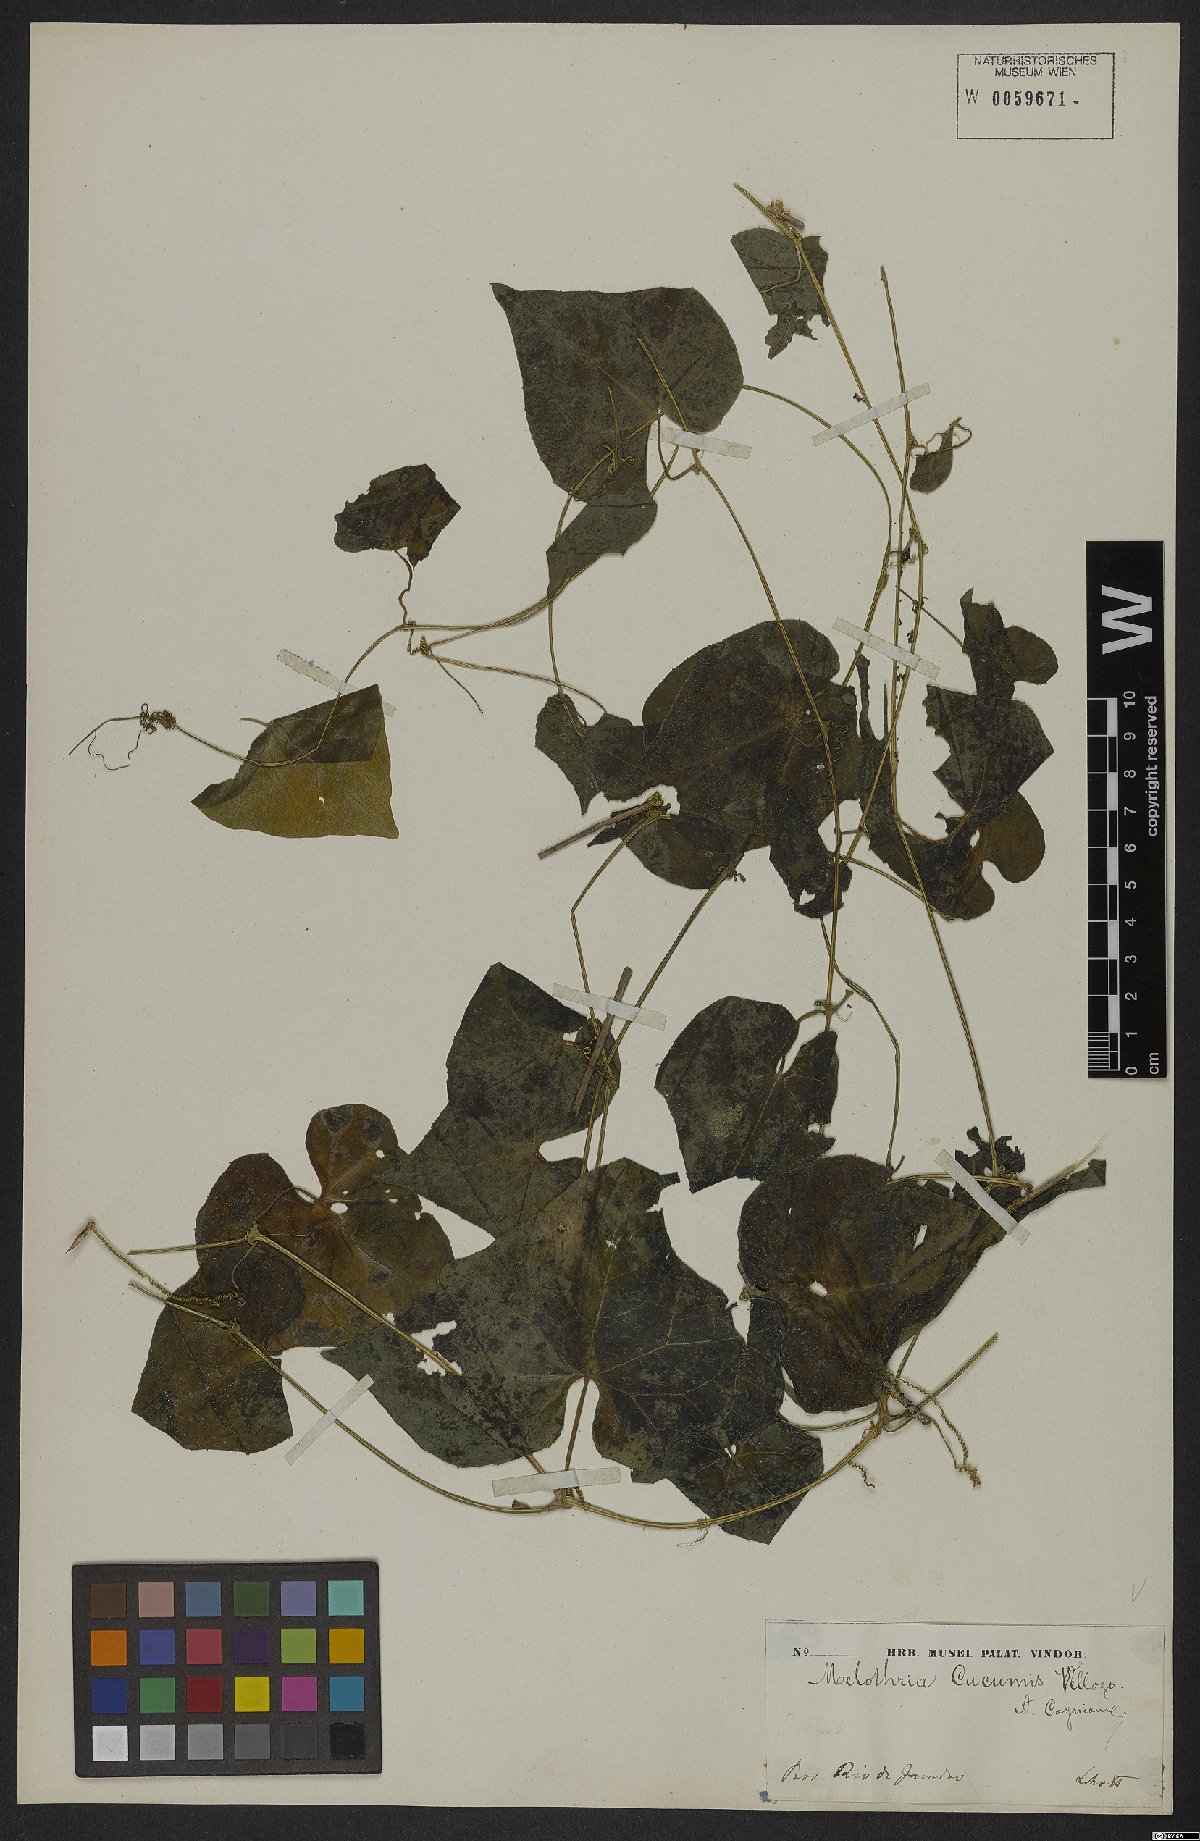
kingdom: Plantae
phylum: Tracheophyta
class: Magnoliopsida
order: Cucurbitales
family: Cucurbitaceae
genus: Melothria
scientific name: Melothria cucumis
